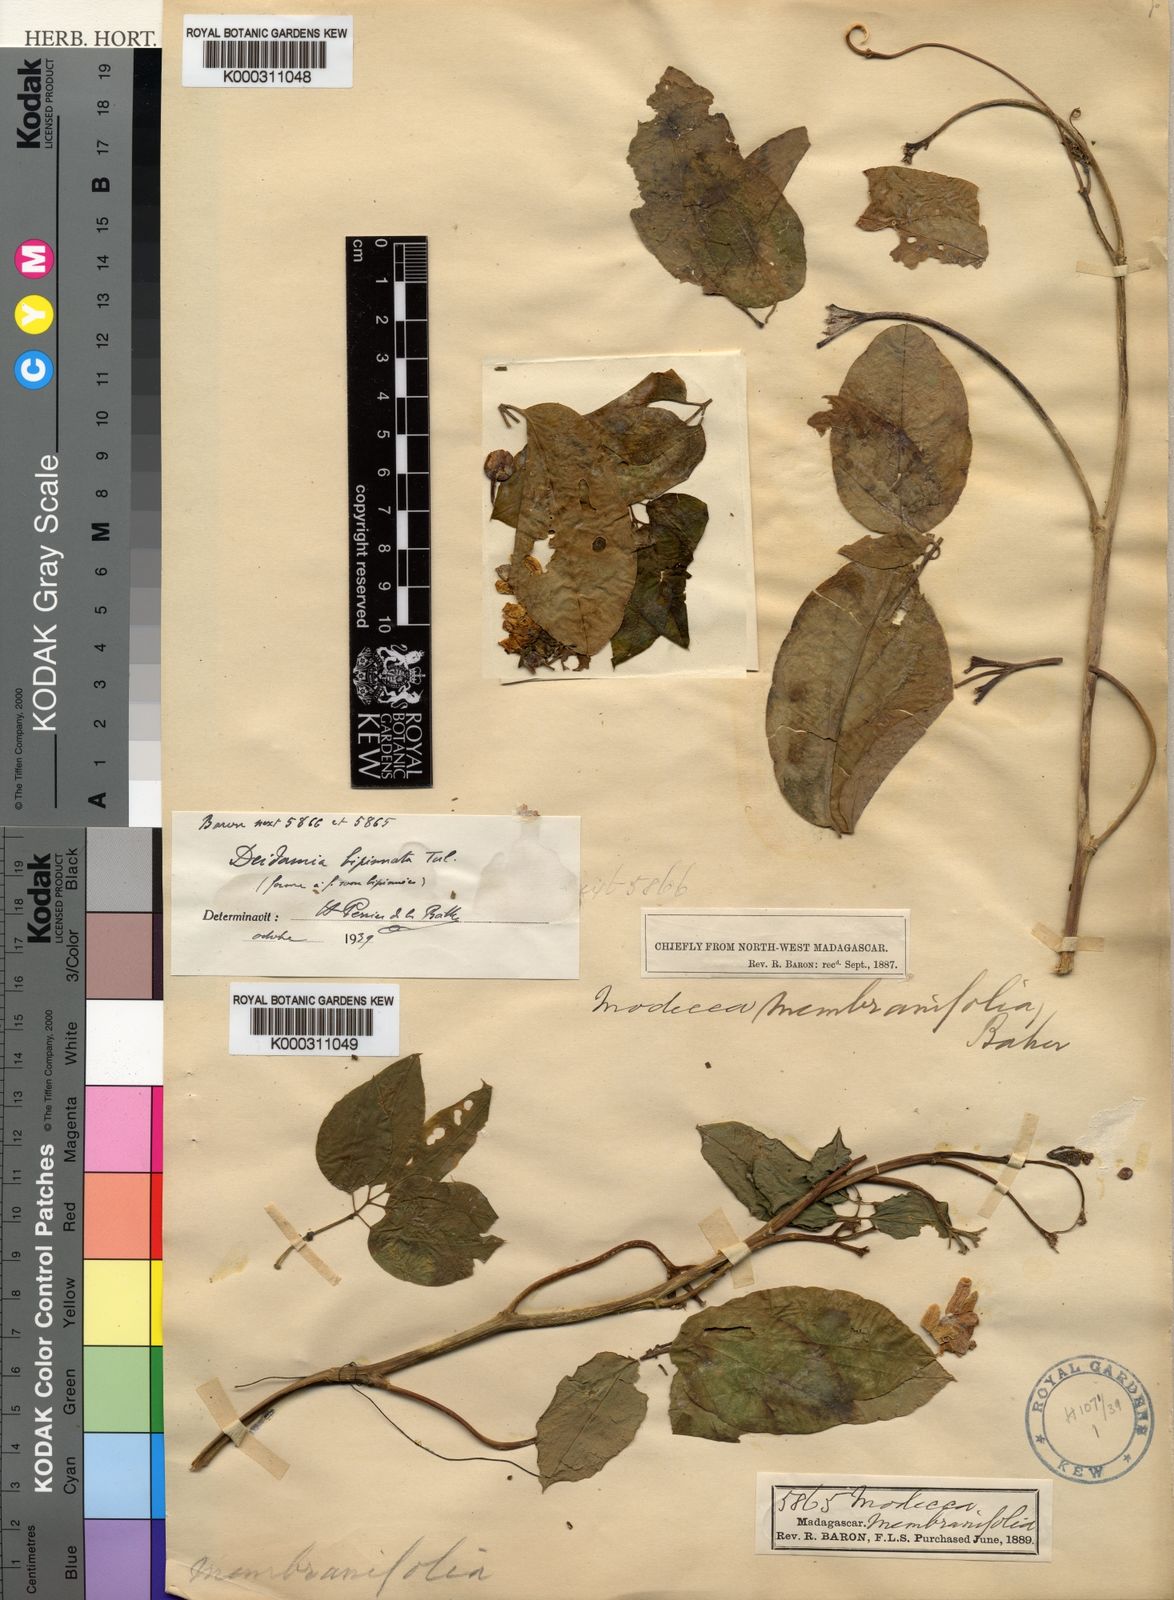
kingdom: Plantae
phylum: Tracheophyta
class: Magnoliopsida
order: Malpighiales
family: Passifloraceae
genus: Deidamia
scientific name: Deidamia bipinnata
